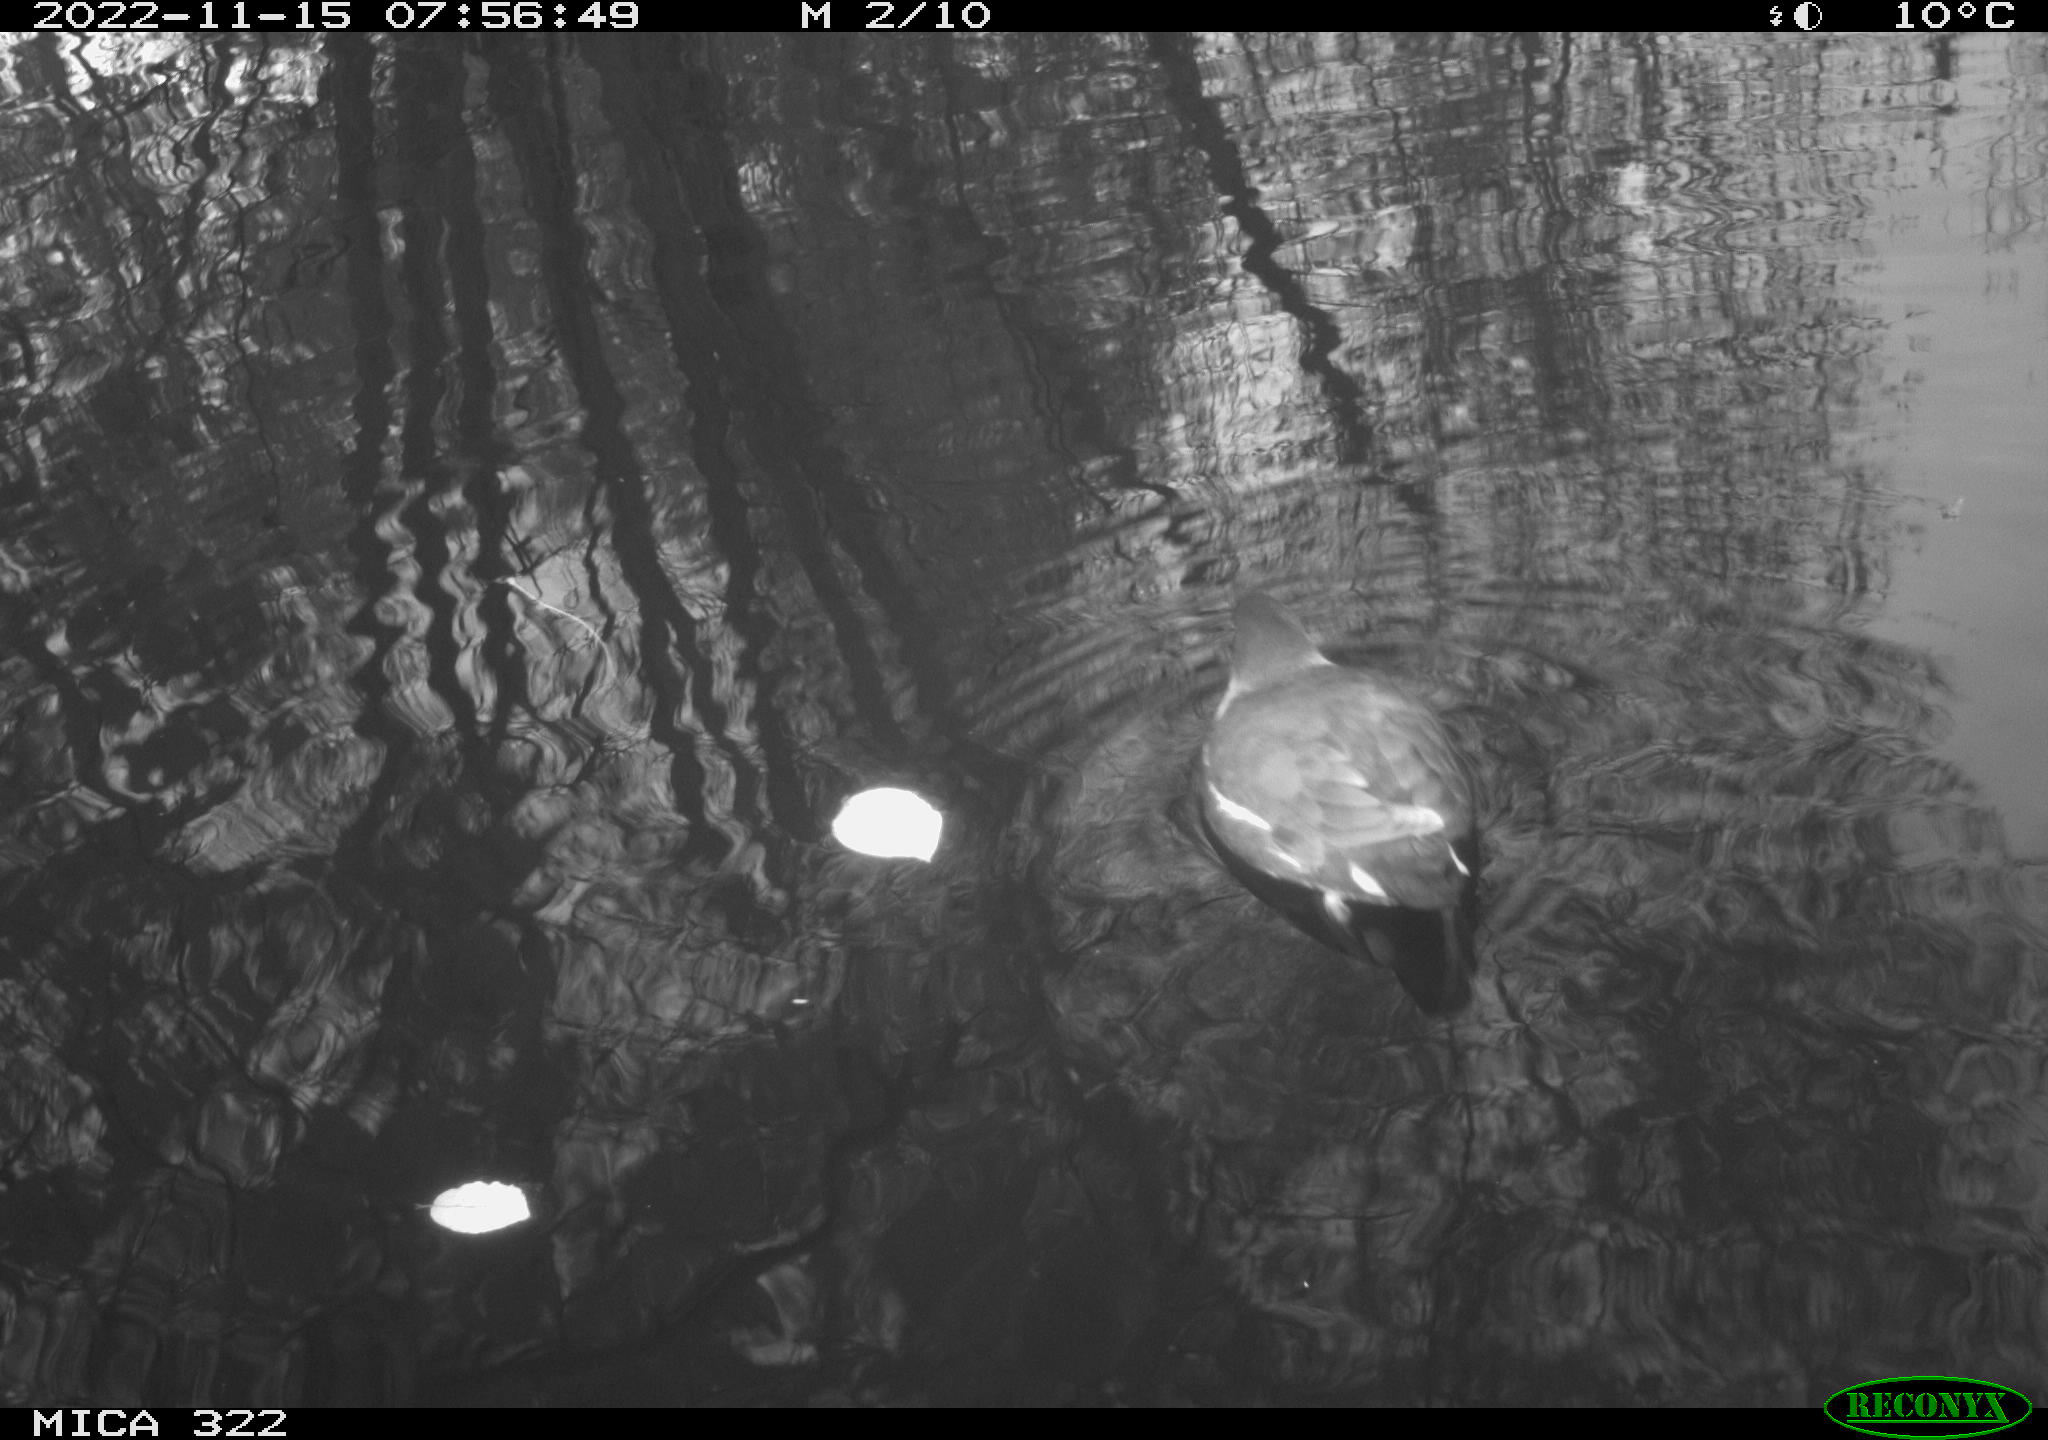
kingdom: Animalia
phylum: Chordata
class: Aves
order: Gruiformes
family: Rallidae
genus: Gallinula
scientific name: Gallinula chloropus
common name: Common moorhen
